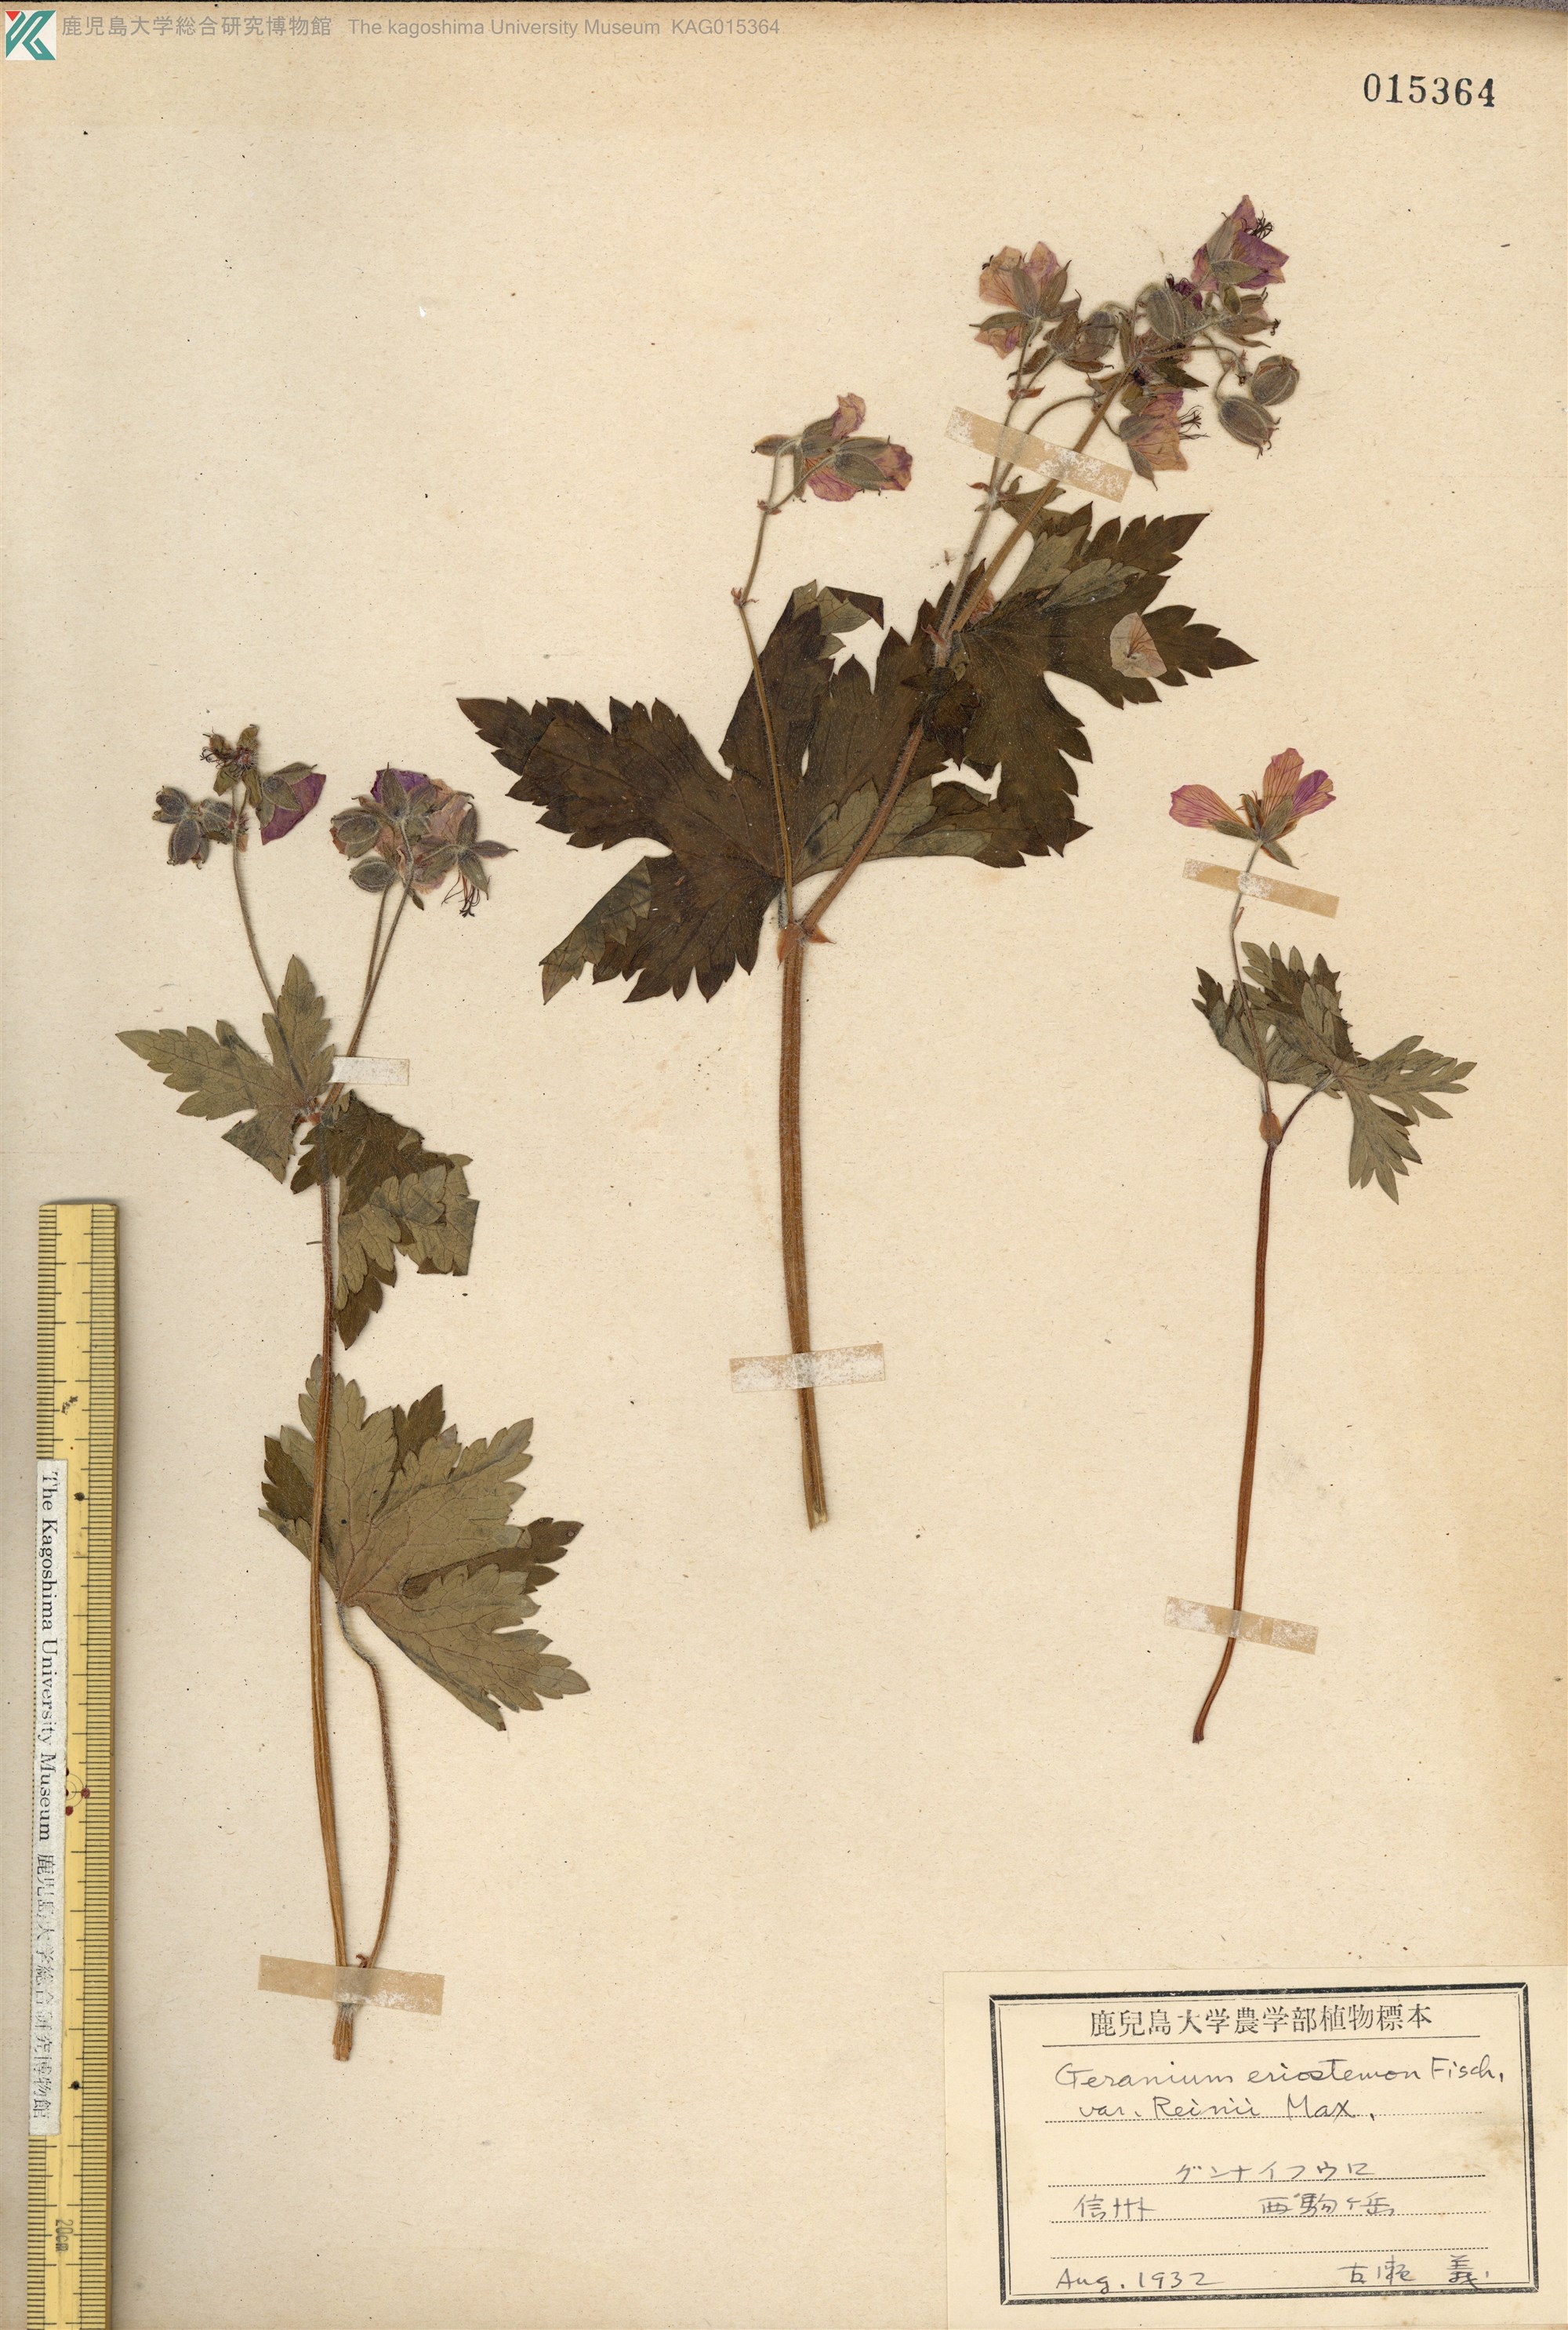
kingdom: Plantae
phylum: Tracheophyta
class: Magnoliopsida
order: Geraniales
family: Geraniaceae
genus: Geranium
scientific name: Geranium reinii
